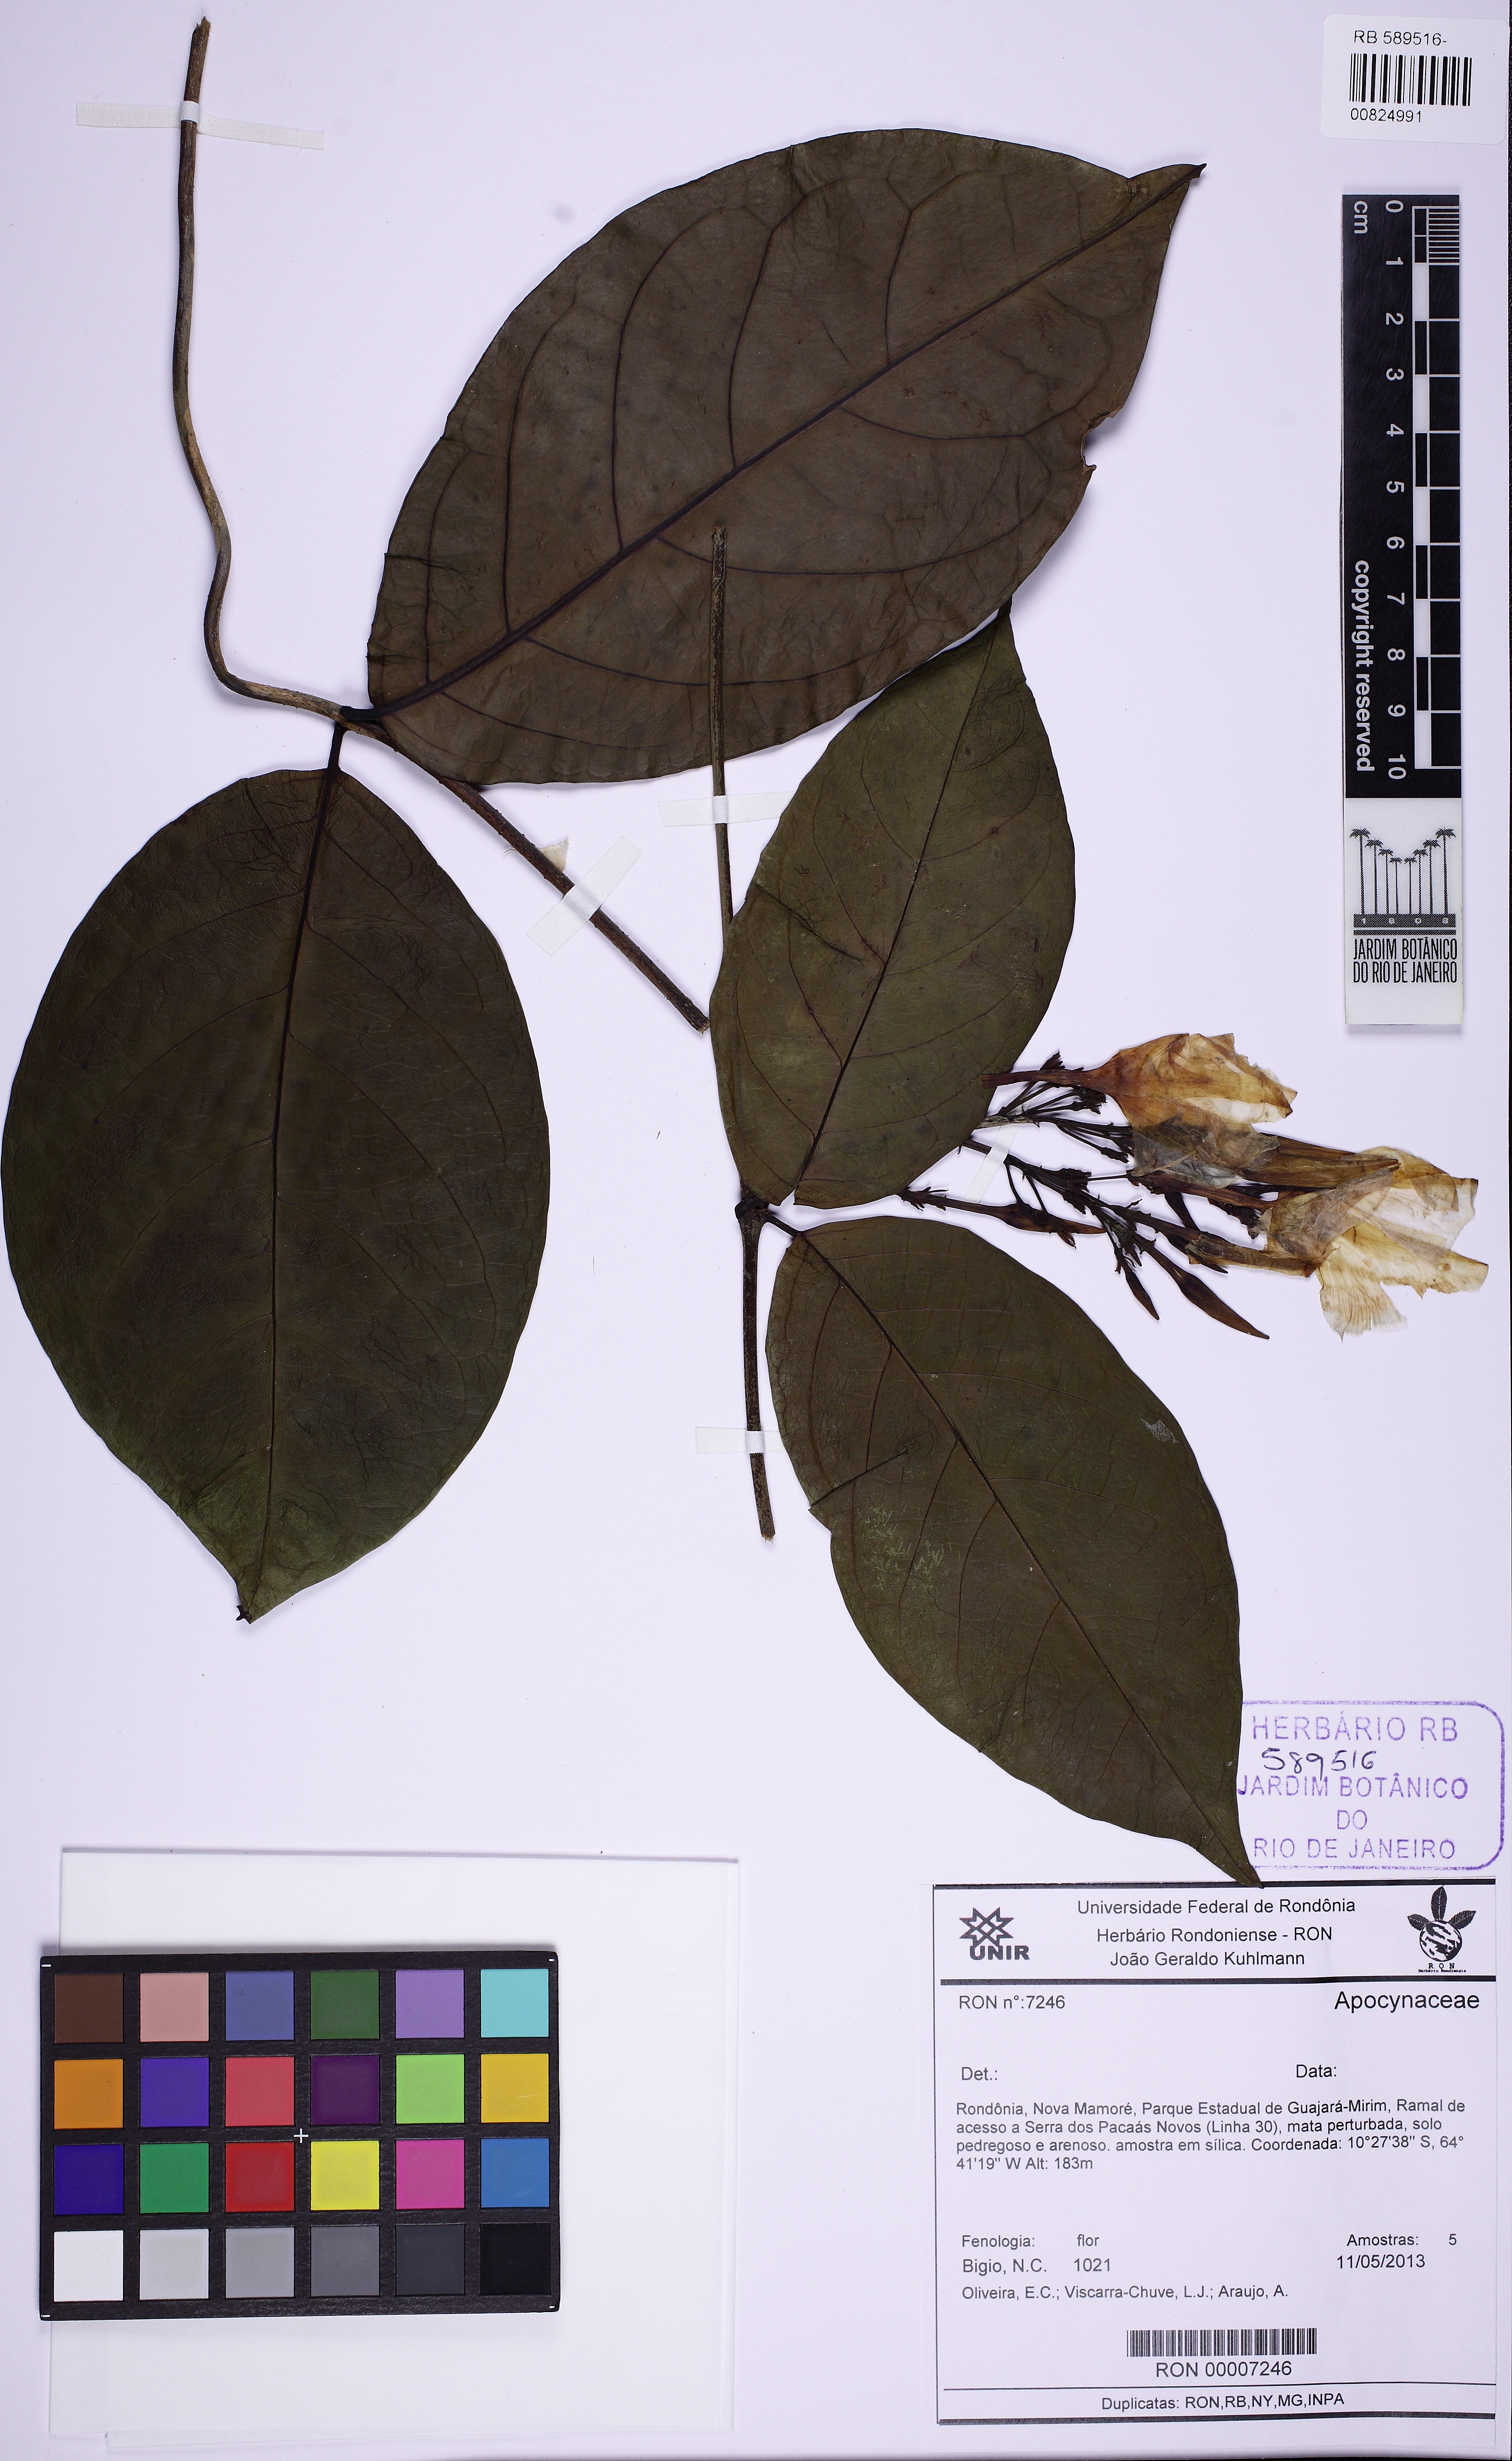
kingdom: Plantae
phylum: Tracheophyta
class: Magnoliopsida
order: Gentianales
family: Apocynaceae
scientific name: Apocynaceae
